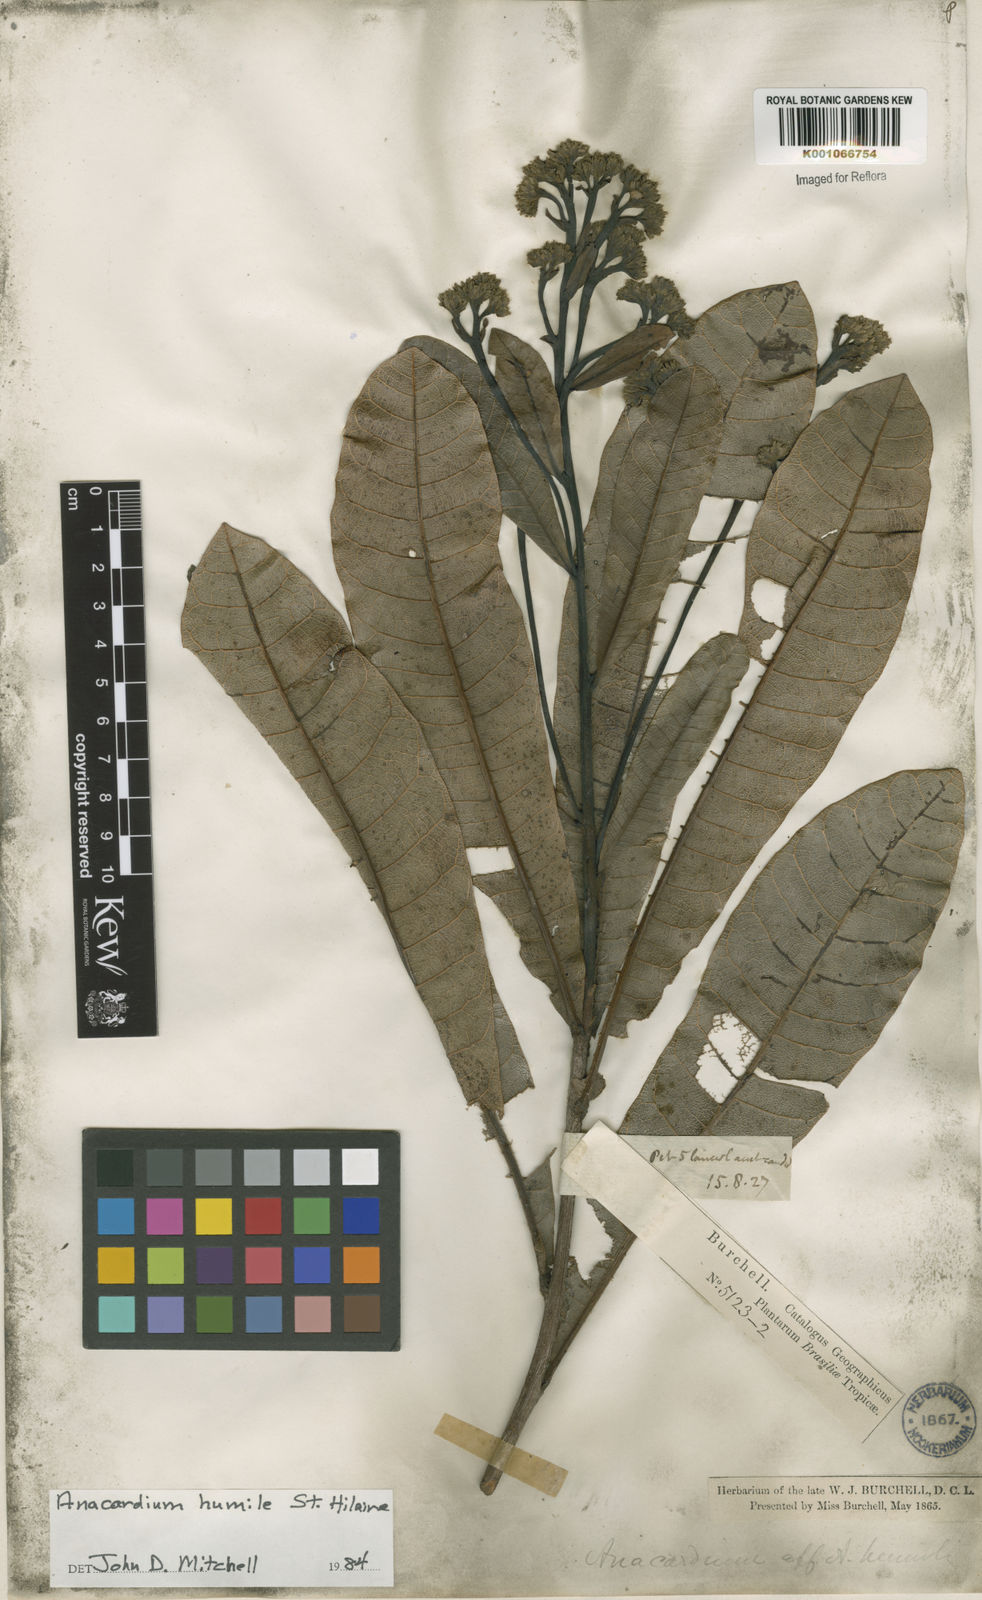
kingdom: Plantae
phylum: Tracheophyta
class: Magnoliopsida
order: Sapindales
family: Anacardiaceae
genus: Anacardium
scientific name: Anacardium humile
